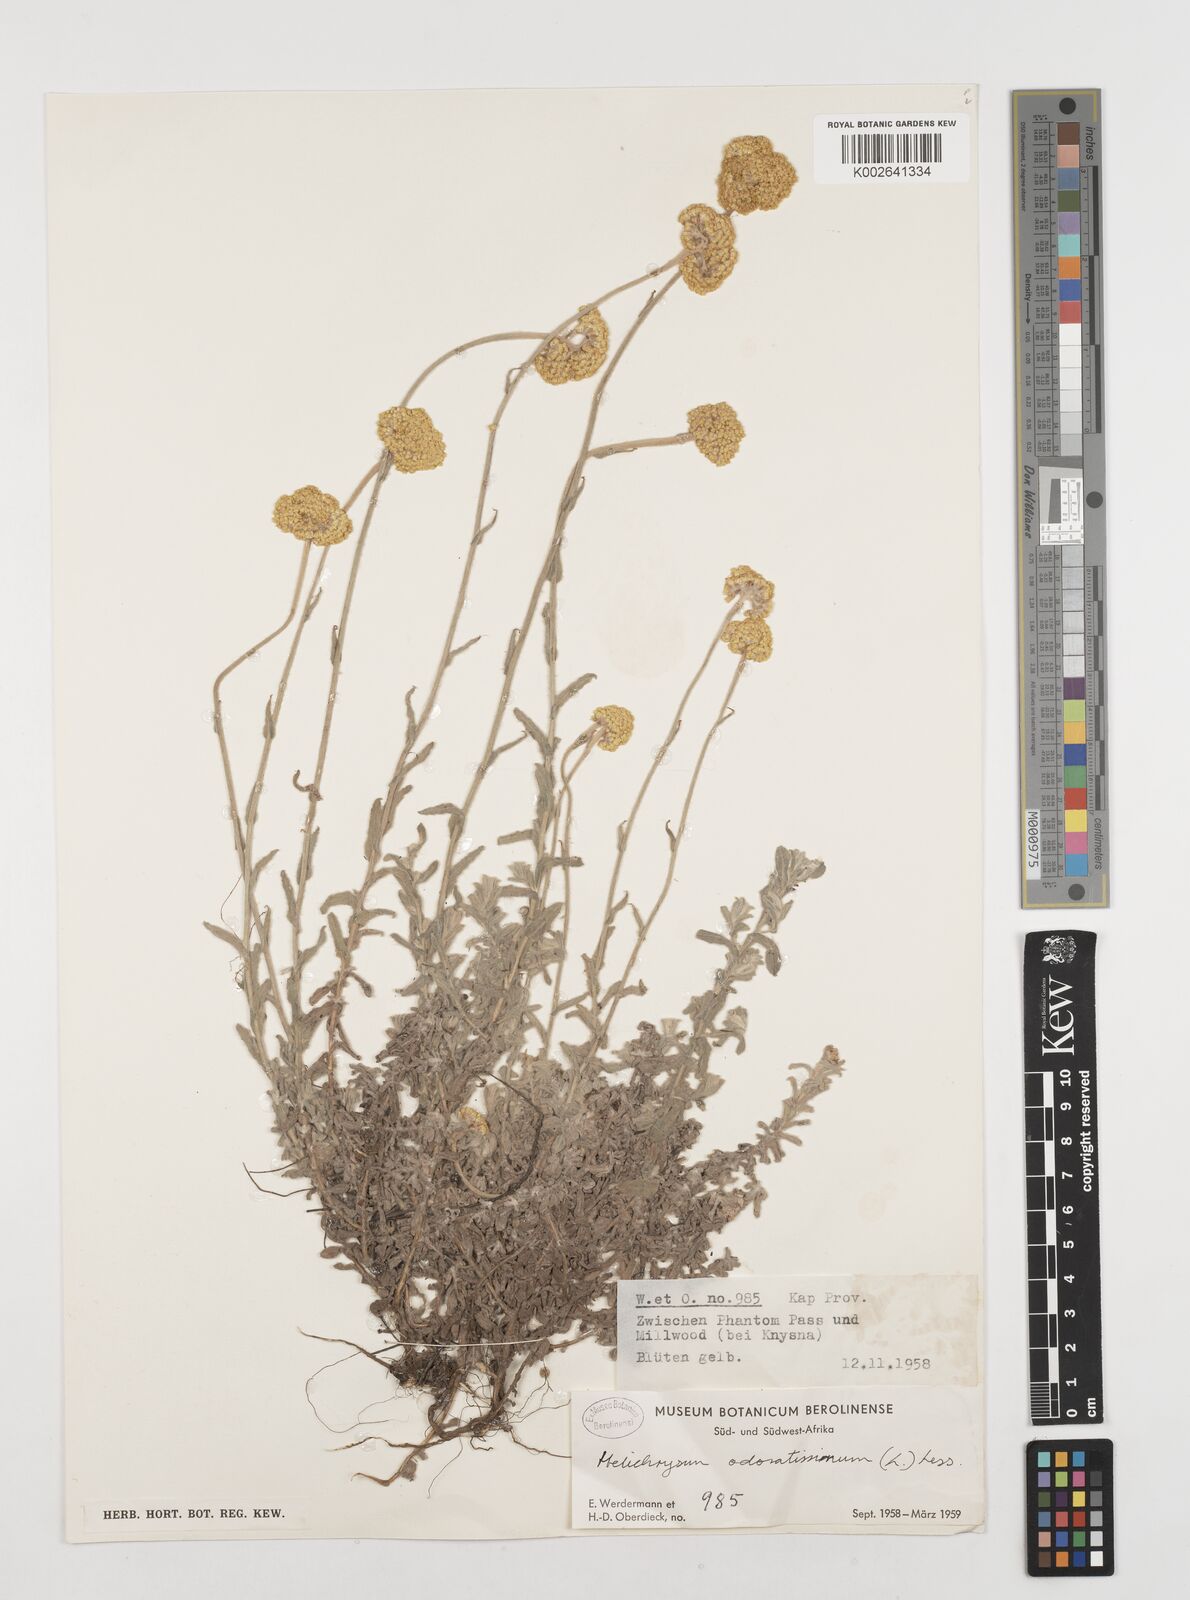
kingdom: Plantae
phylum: Tracheophyta
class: Magnoliopsida
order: Asterales
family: Asteraceae
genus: Helichrysum
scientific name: Helichrysum odoratissimum
